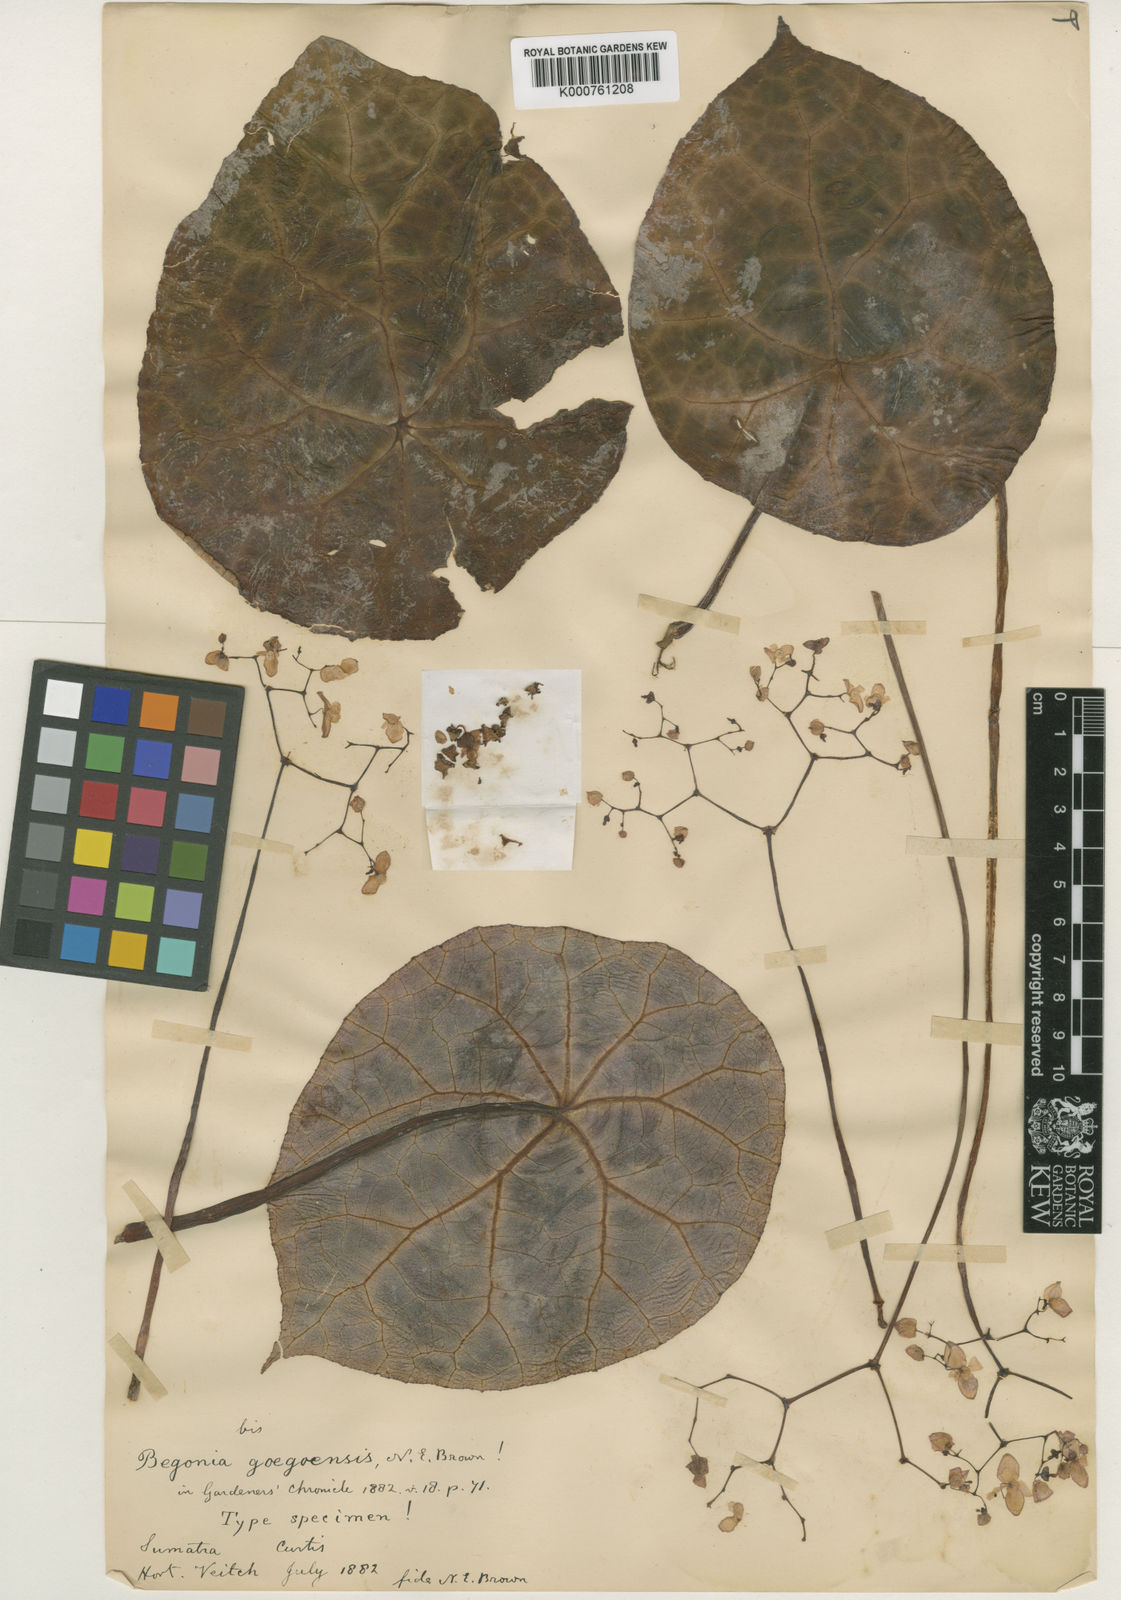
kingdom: Plantae
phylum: Tracheophyta
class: Magnoliopsida
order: Cucurbitales
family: Begoniaceae
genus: Begonia
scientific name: Begonia goegoensis
